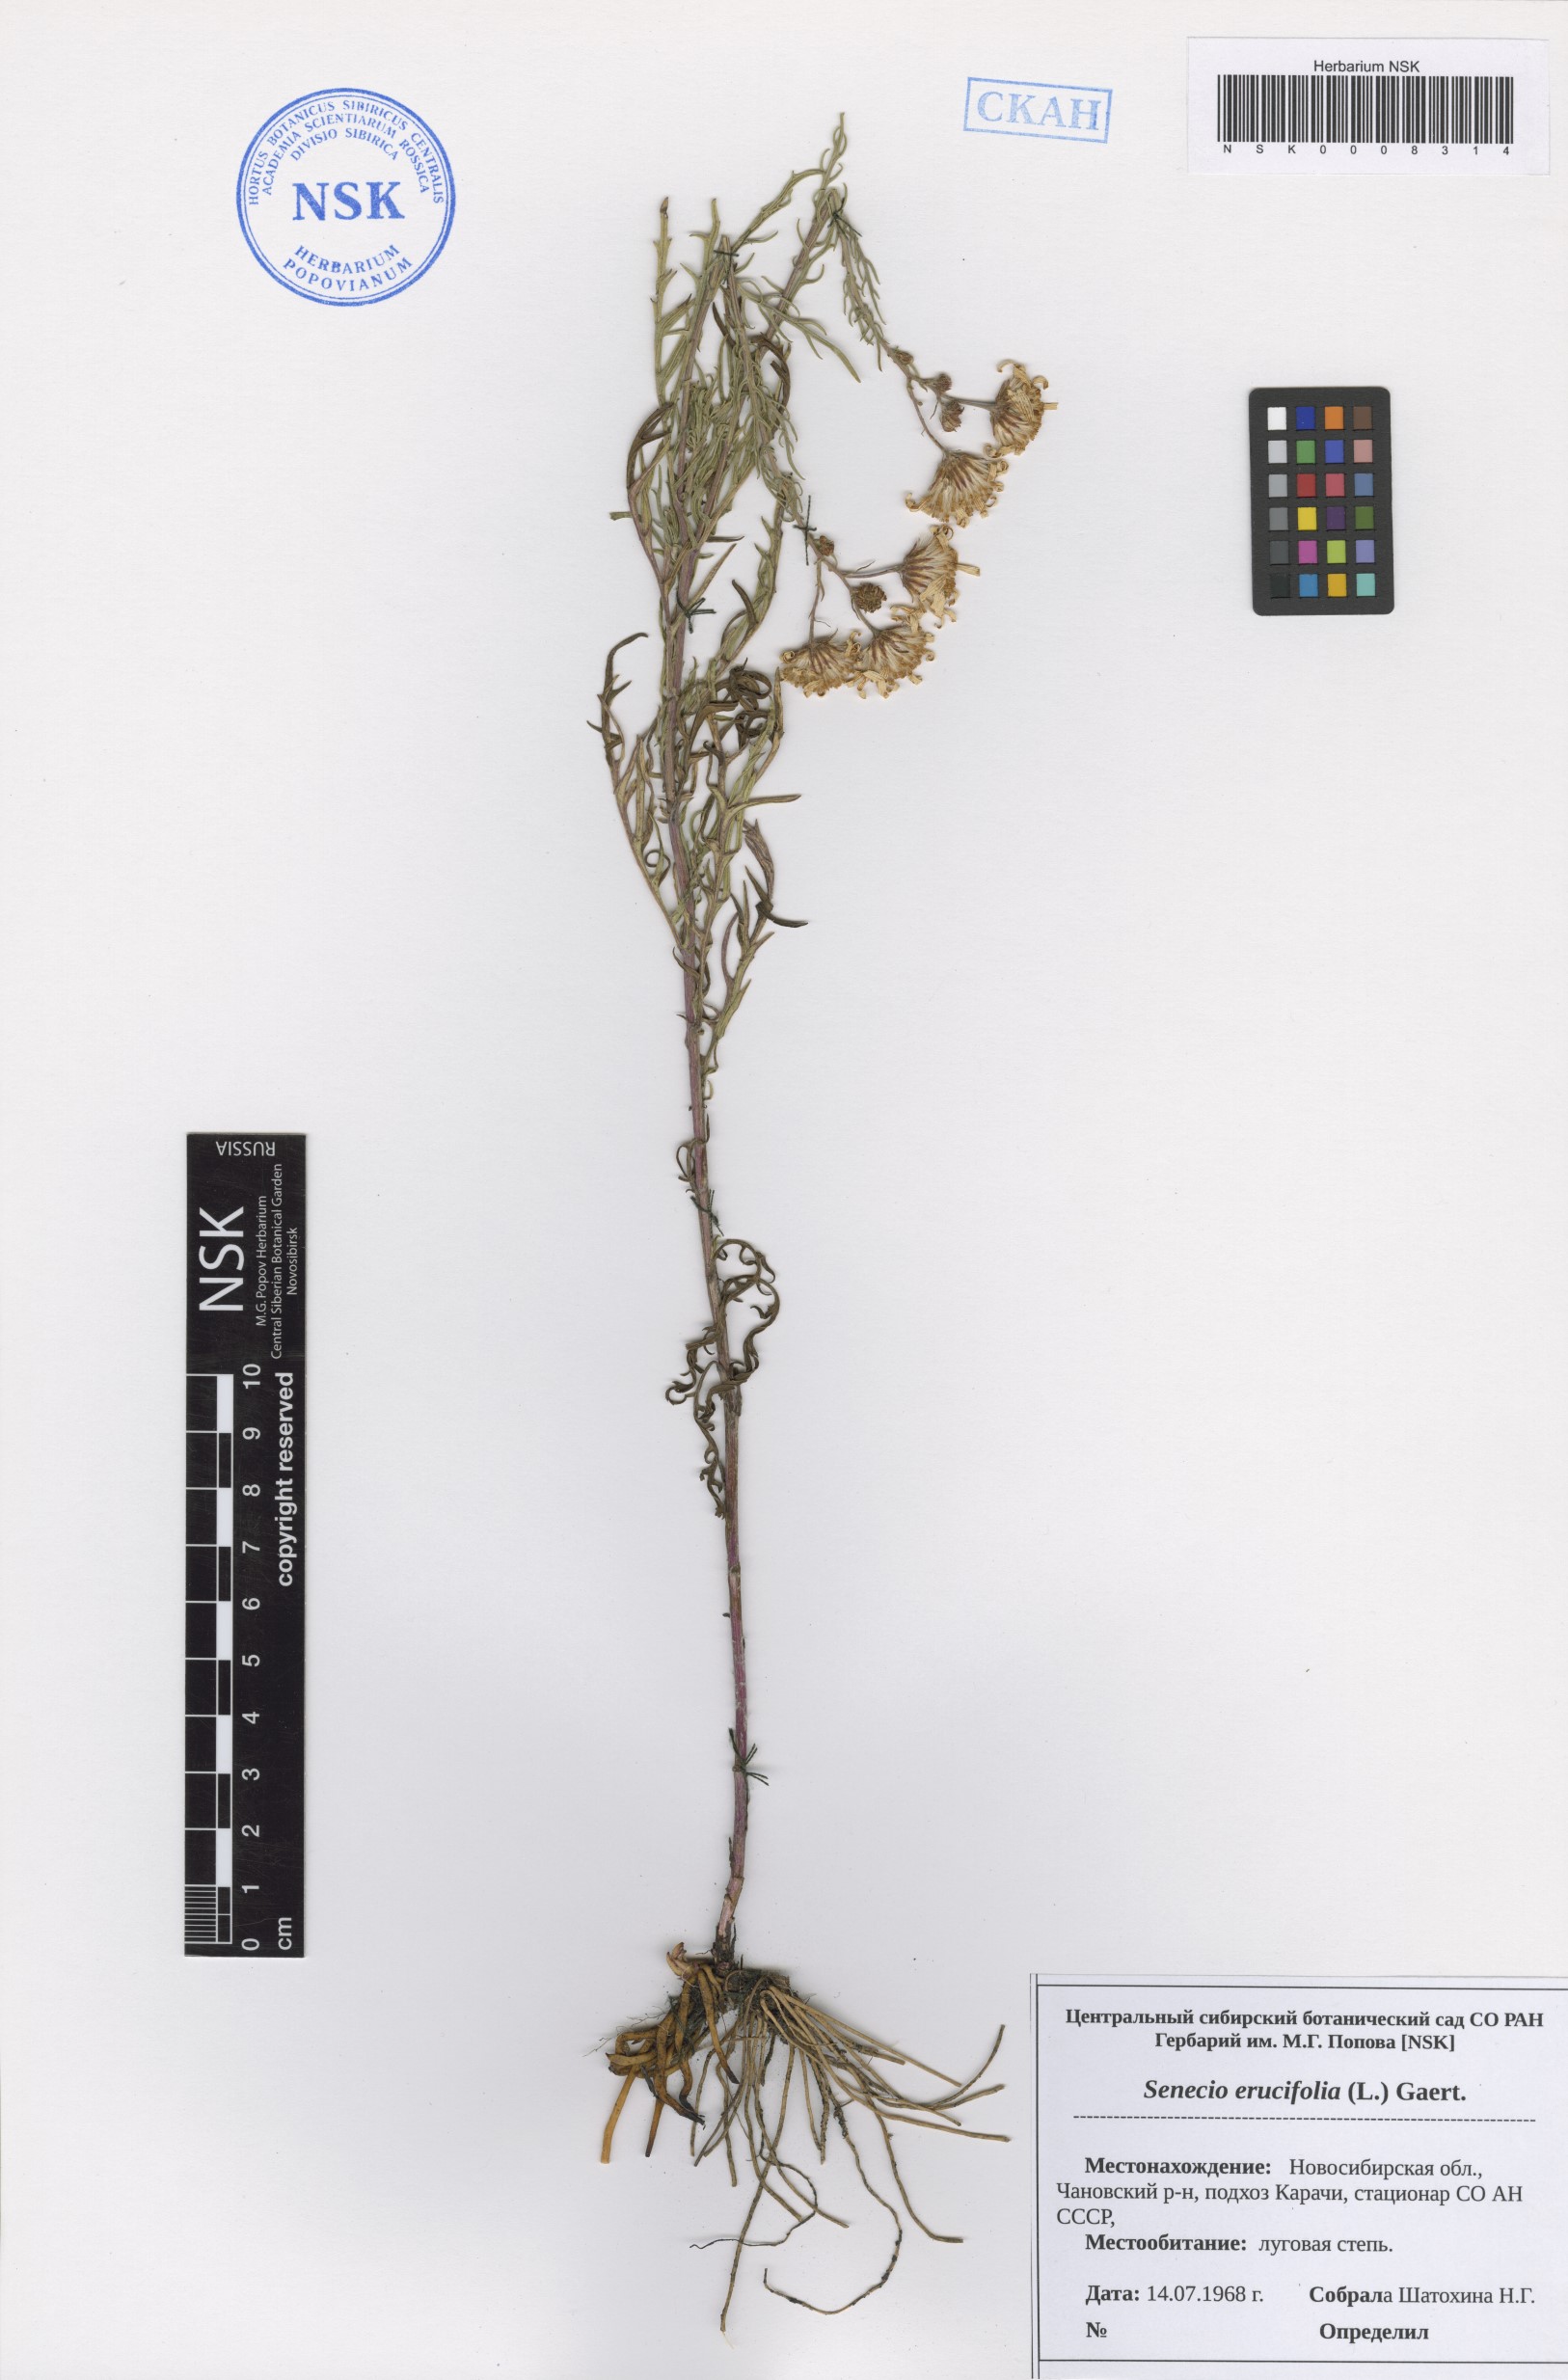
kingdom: Plantae
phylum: Tracheophyta
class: Magnoliopsida
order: Asterales
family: Asteraceae
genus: Jacobaea
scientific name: Jacobaea erucifolia
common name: Hoary ragwort
